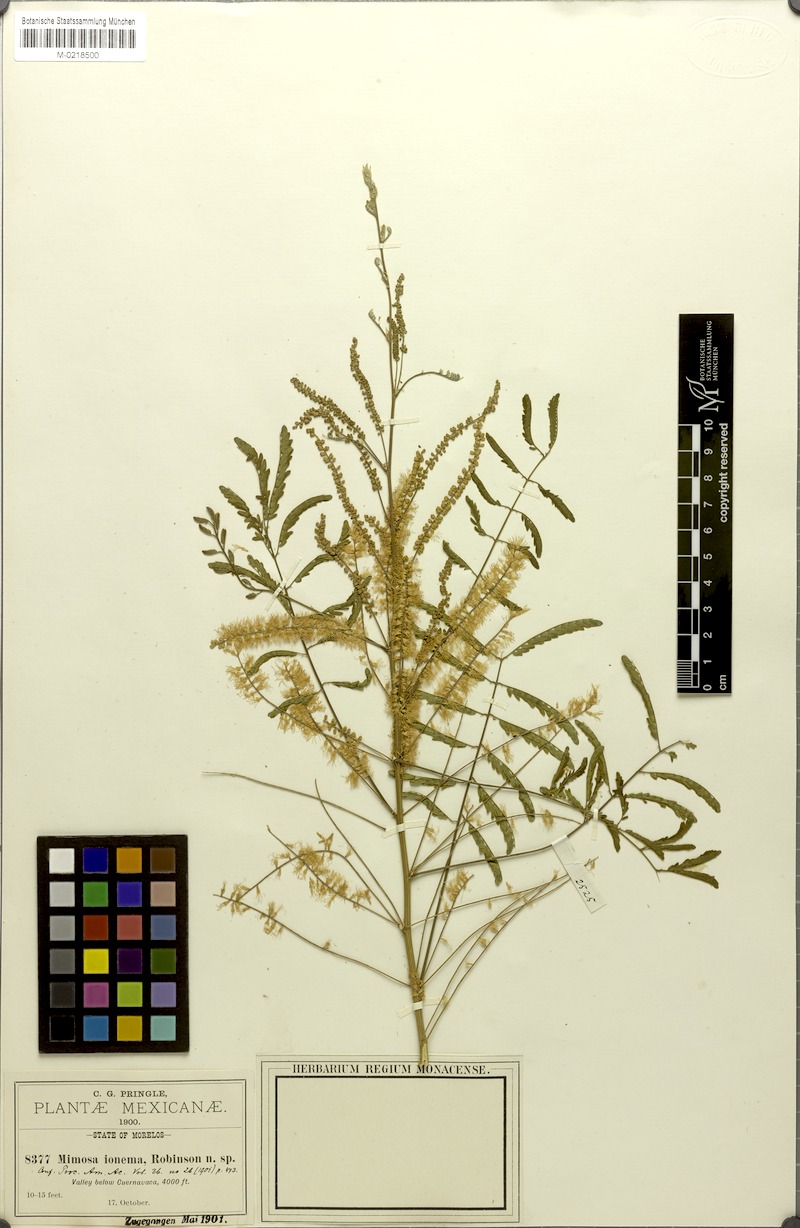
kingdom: Plantae
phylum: Tracheophyta
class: Magnoliopsida
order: Fabales
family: Fabaceae
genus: Mimosa
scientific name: Mimosa polyantha
